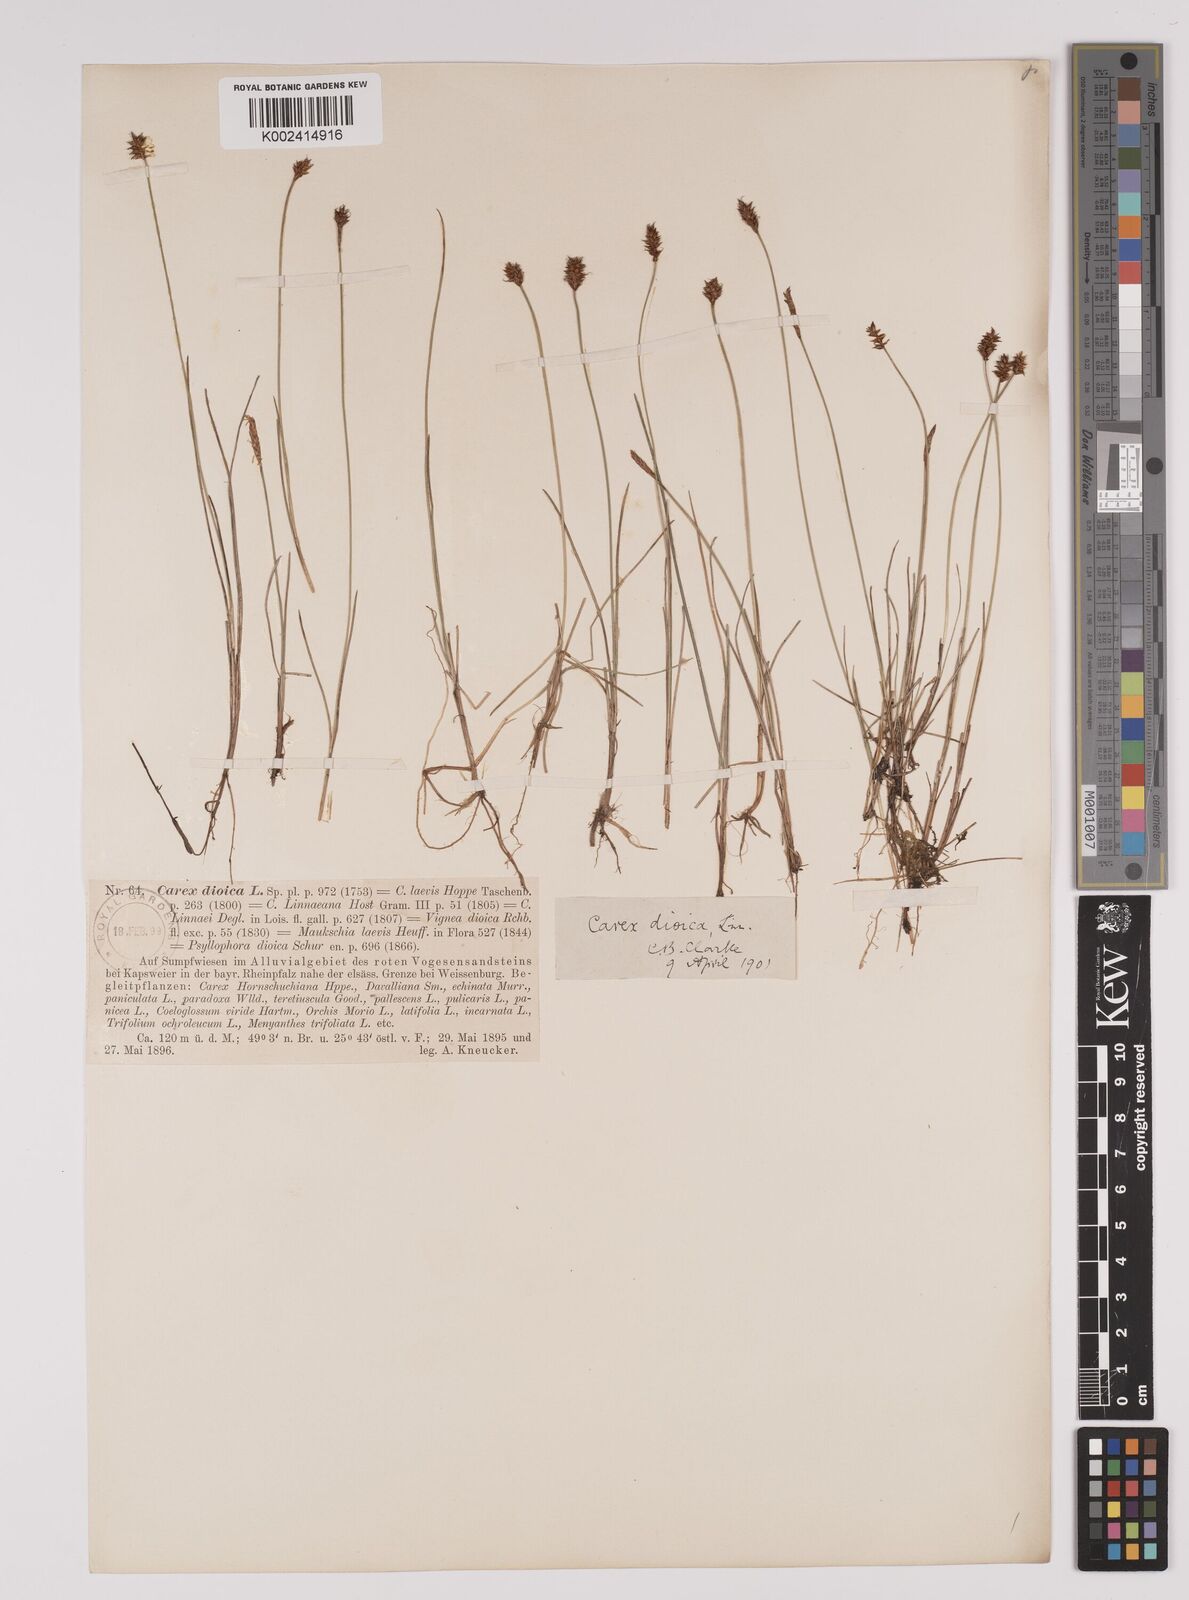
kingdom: Plantae
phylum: Tracheophyta
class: Liliopsida
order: Poales
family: Cyperaceae
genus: Carex
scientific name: Carex dioica
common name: Dioecious sedge
